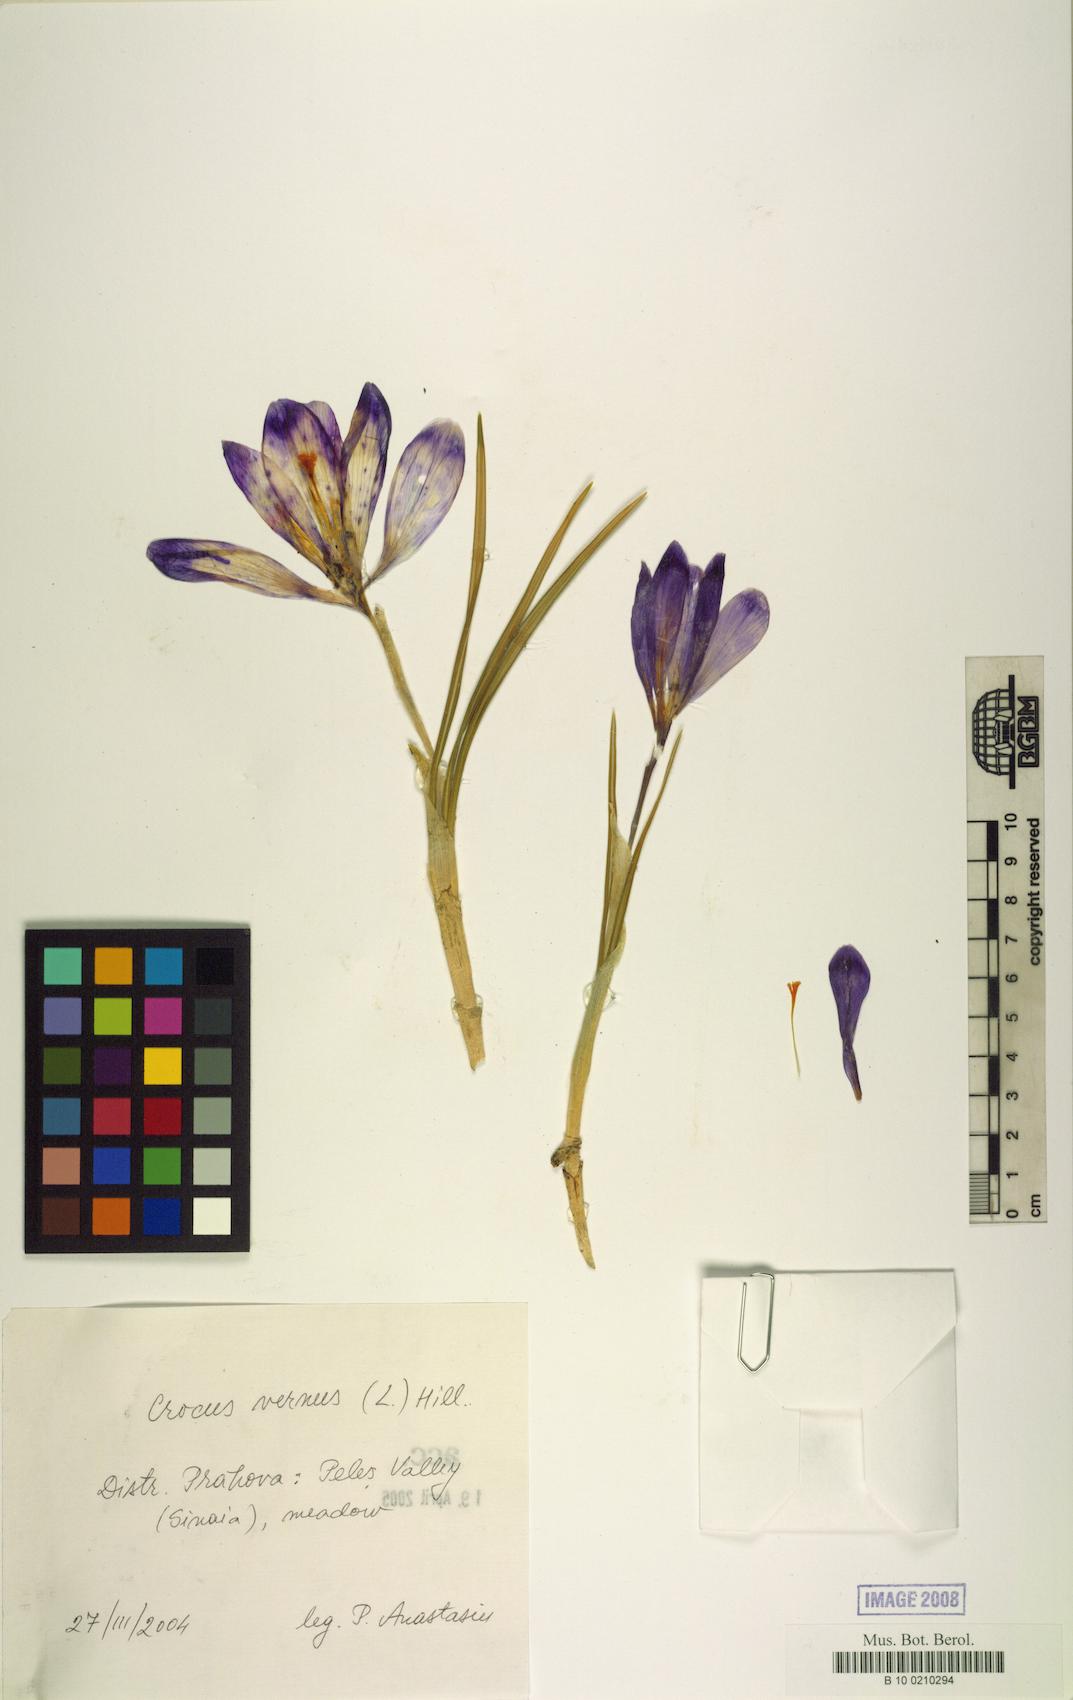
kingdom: Plantae
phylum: Tracheophyta
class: Liliopsida
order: Asparagales
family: Iridaceae
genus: Crocus
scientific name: Crocus vernus
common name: Spring crocus
